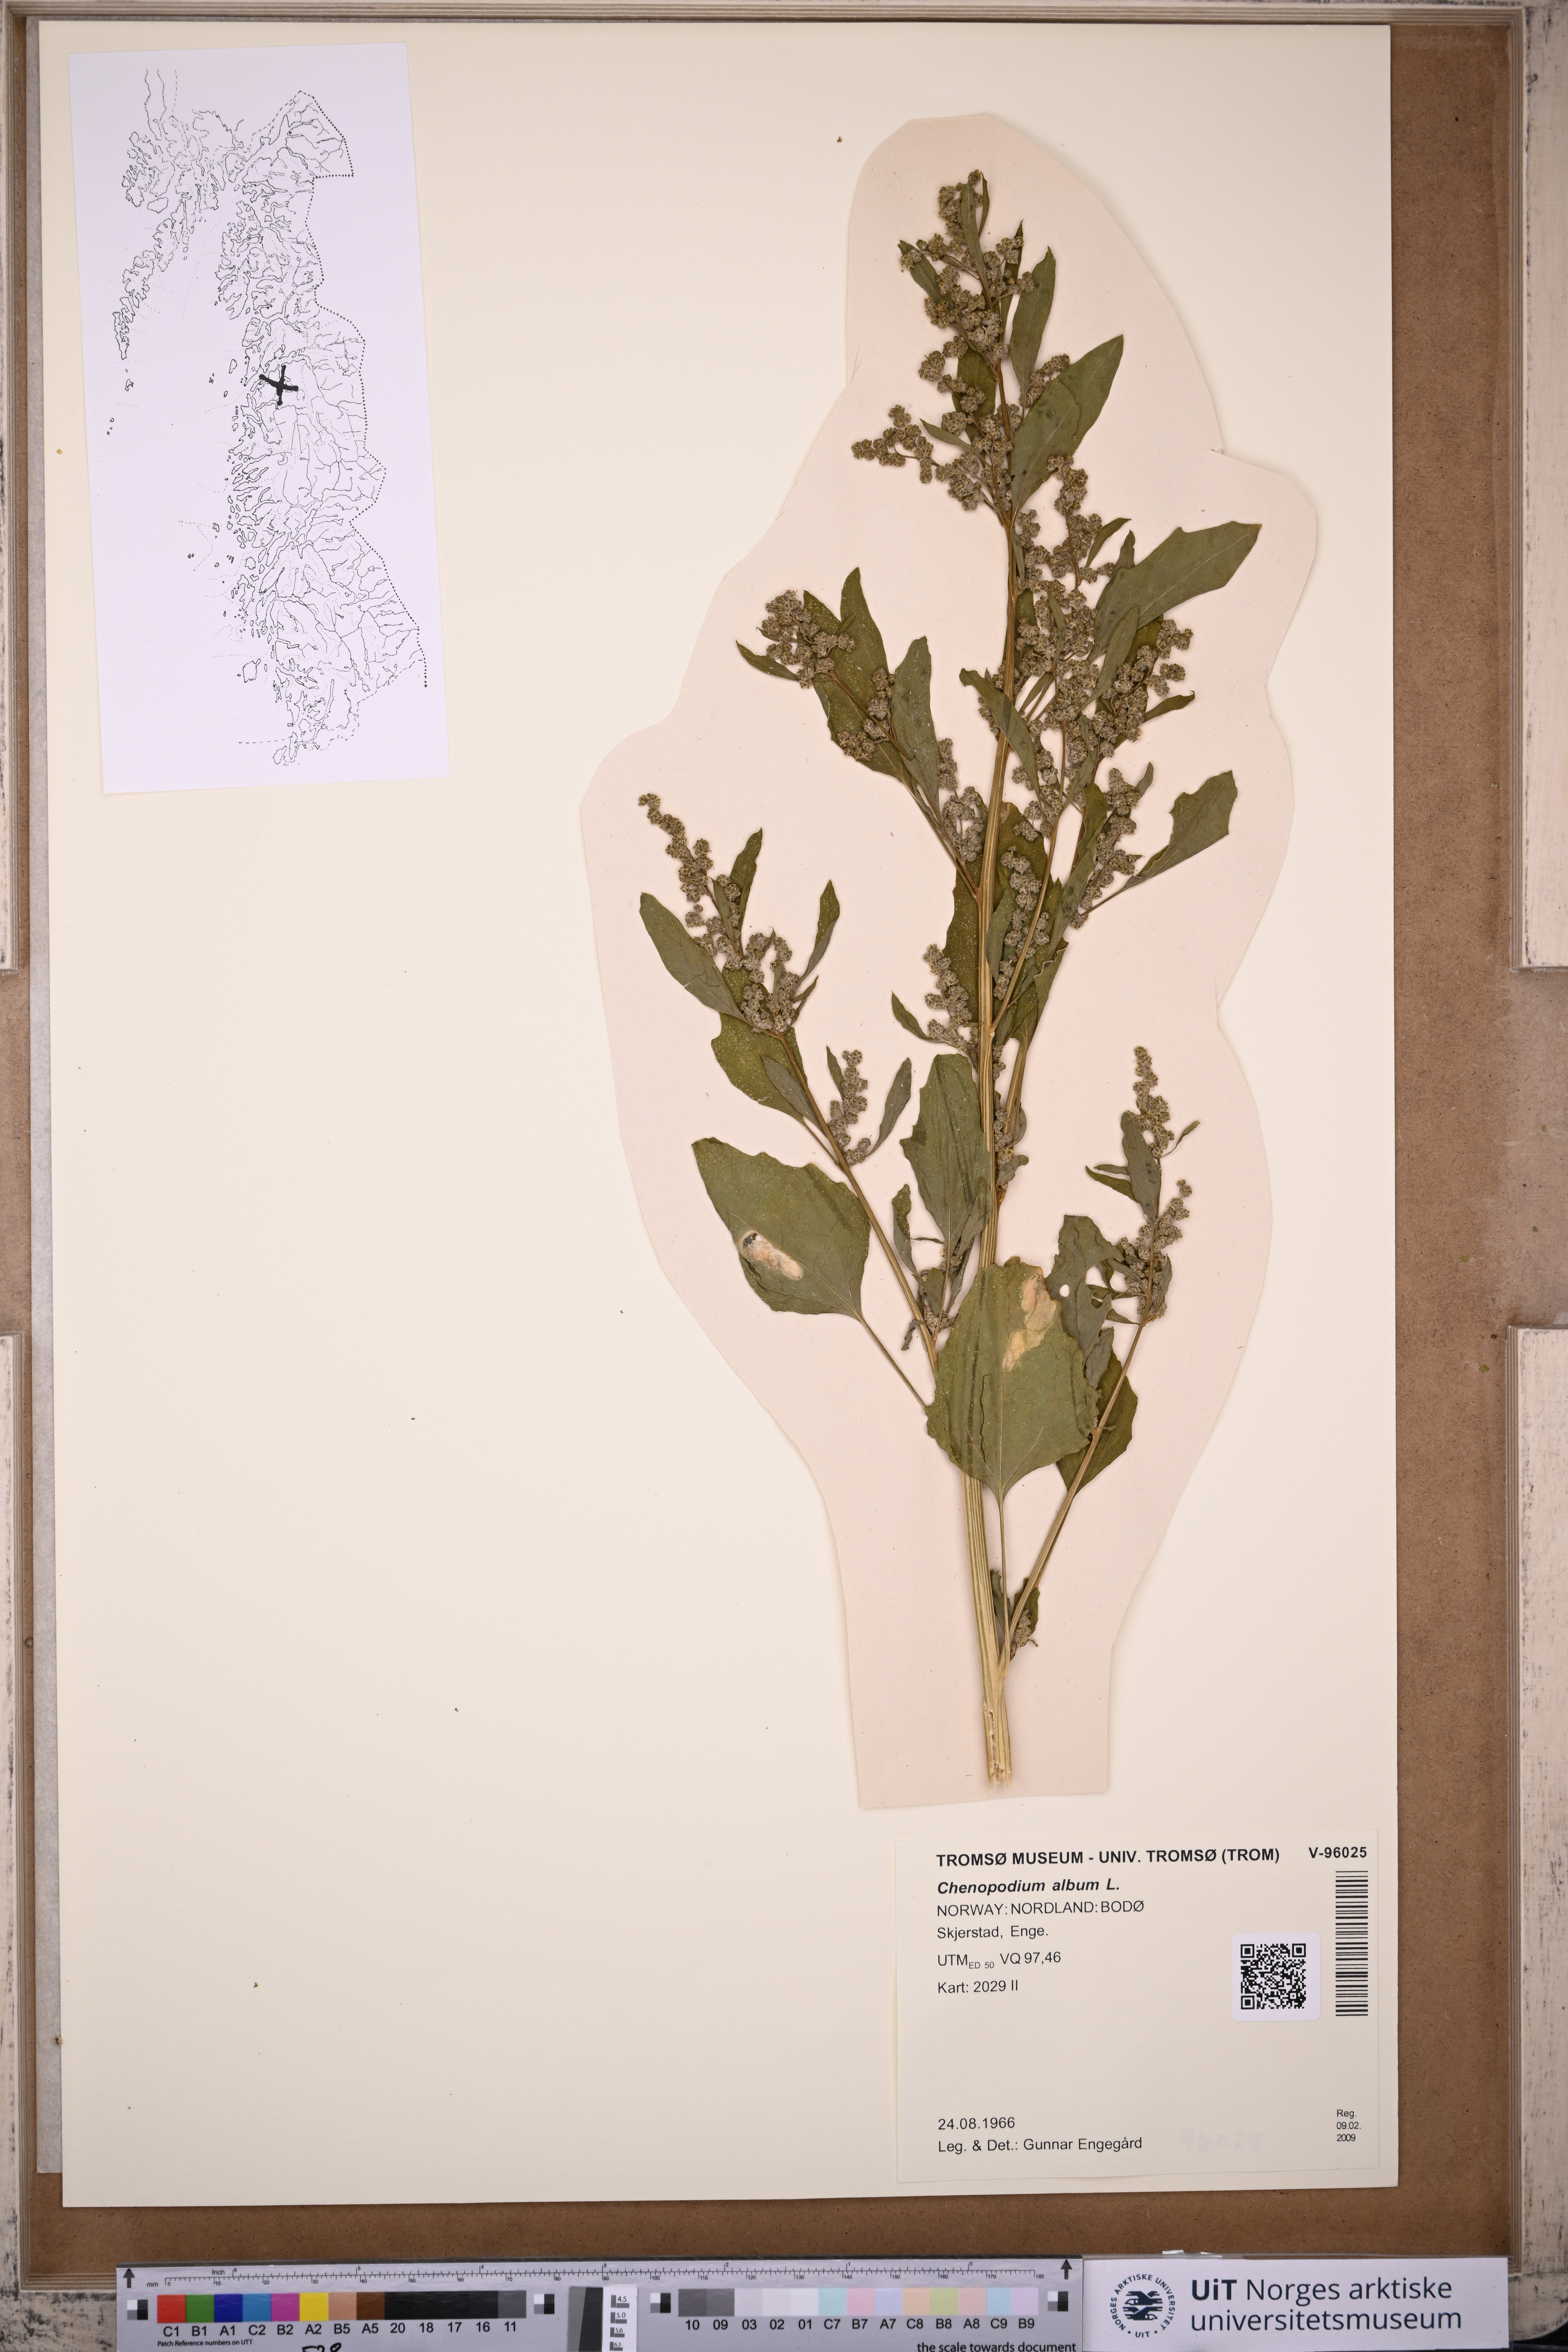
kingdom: Plantae
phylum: Tracheophyta
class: Magnoliopsida
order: Caryophyllales
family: Amaranthaceae
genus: Chenopodium
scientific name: Chenopodium album
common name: Fat-hen
